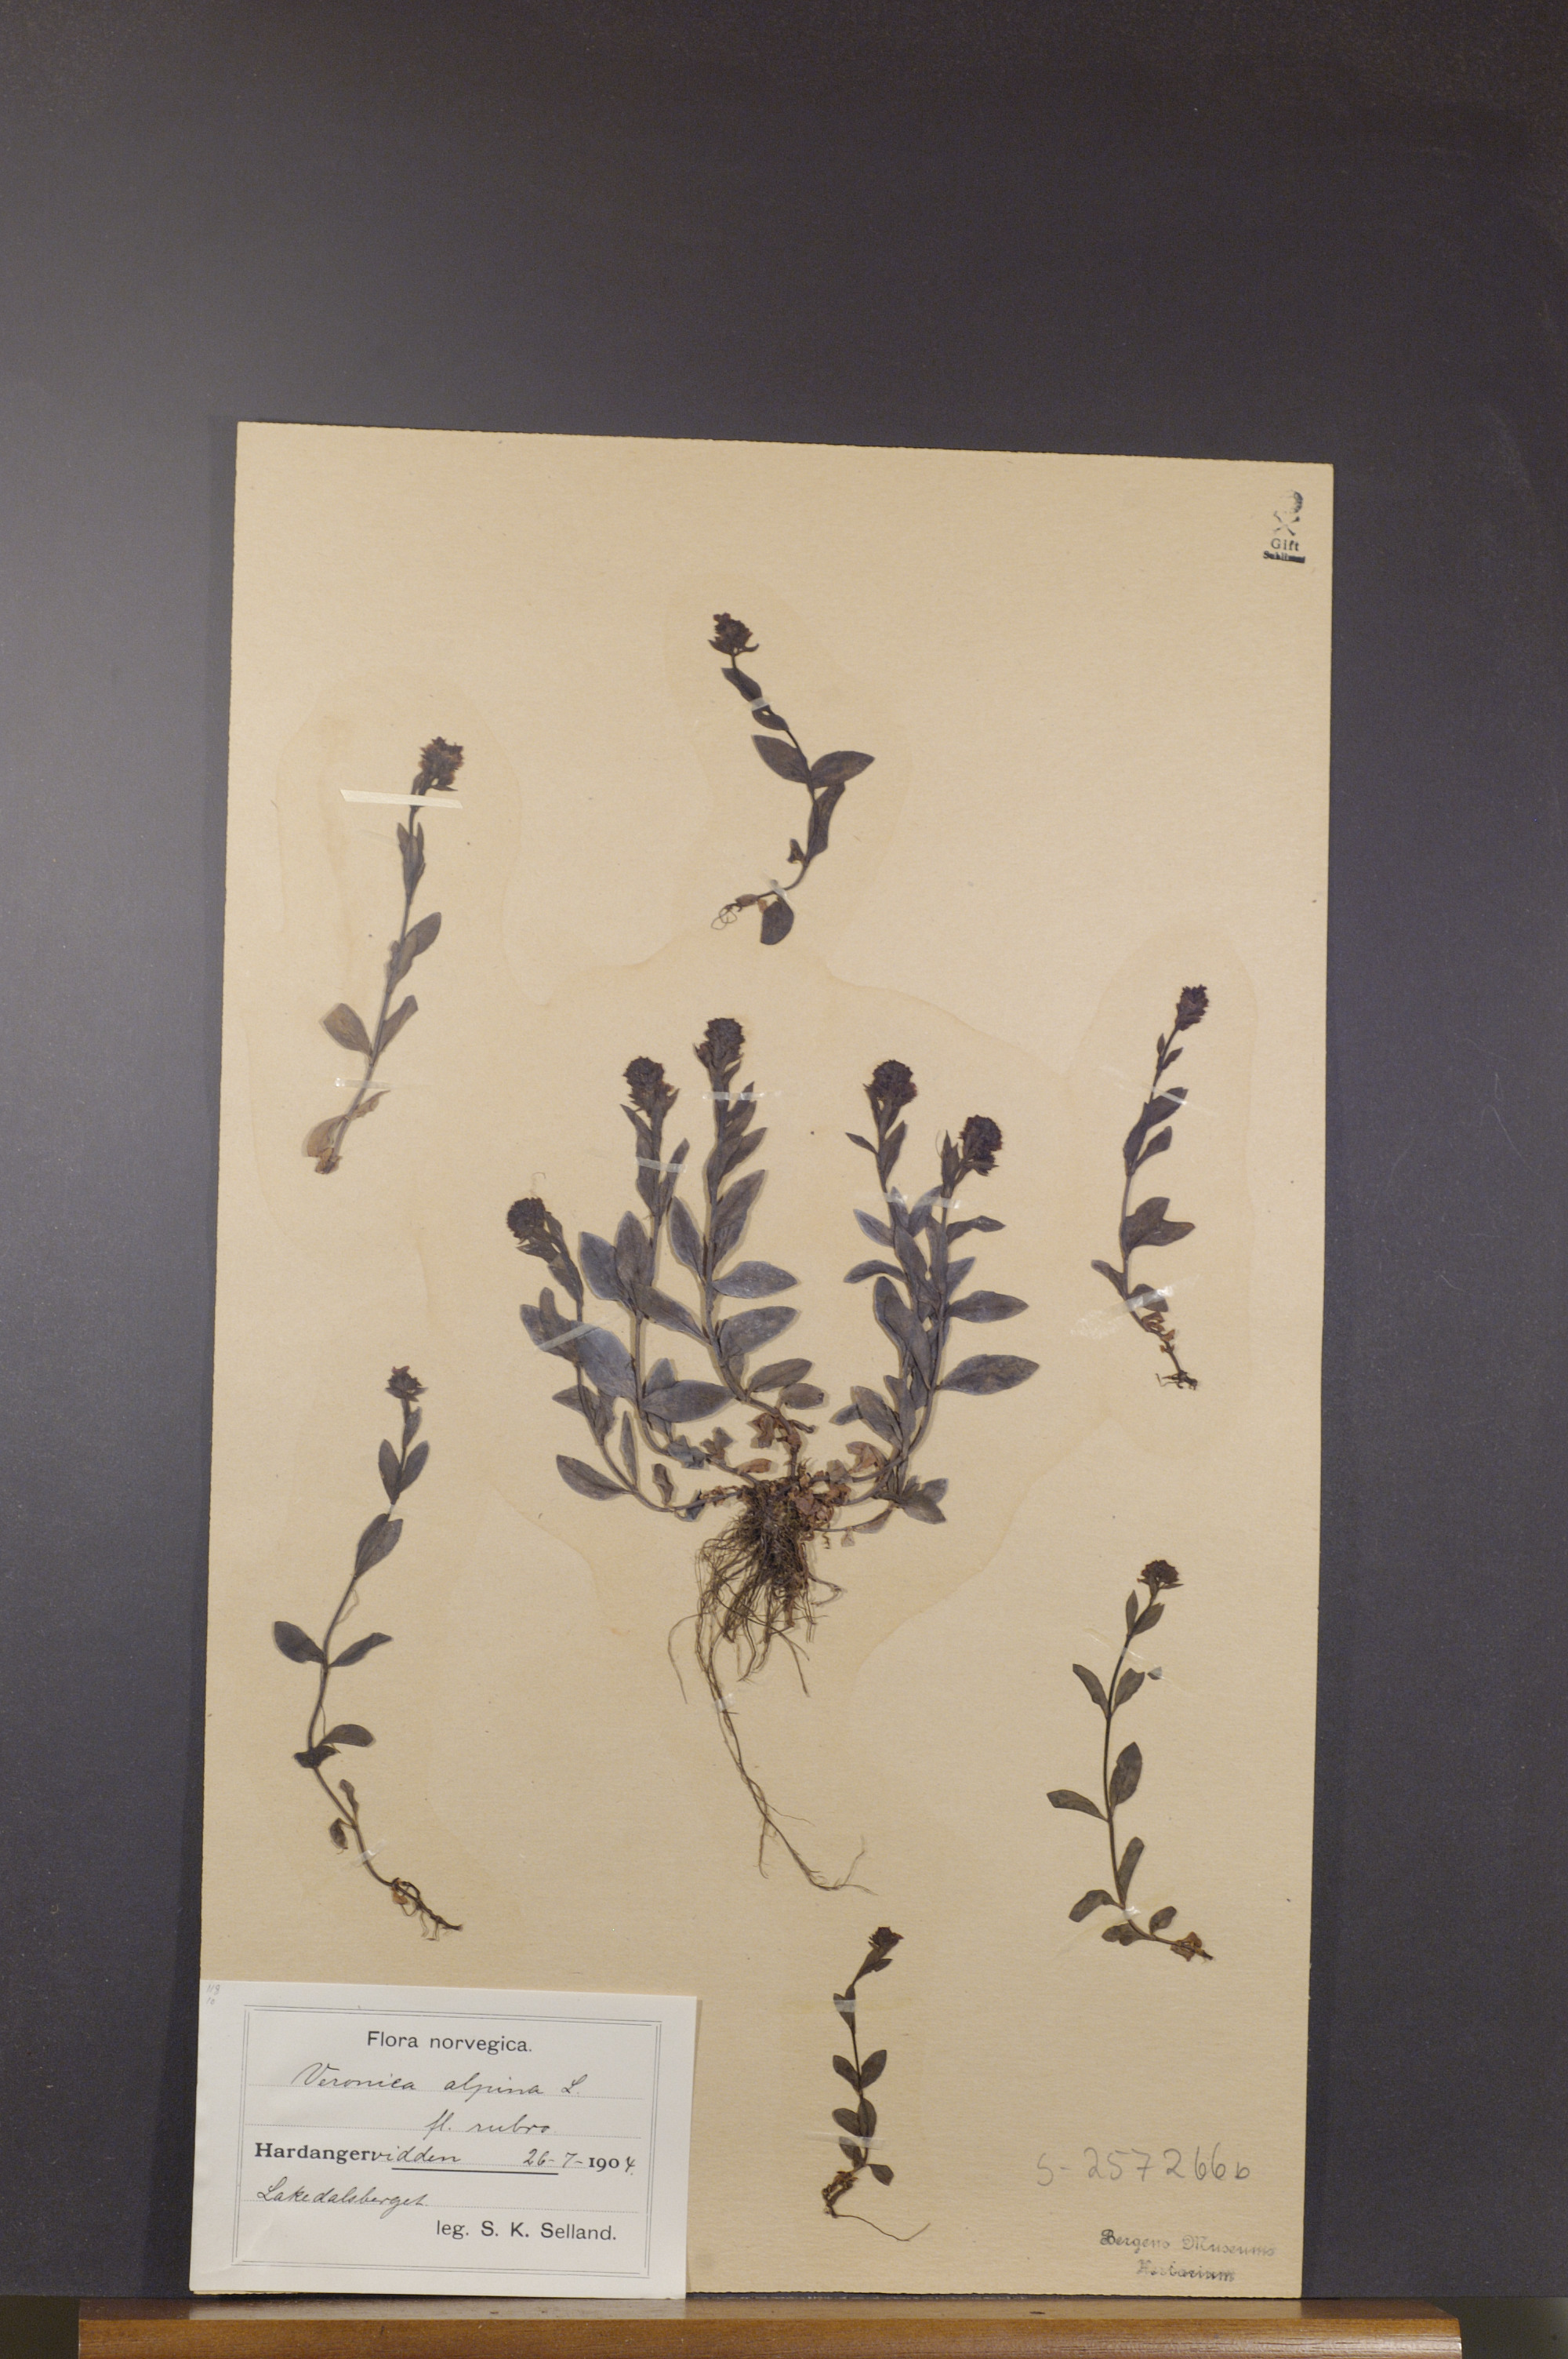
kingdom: Plantae
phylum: Tracheophyta
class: Magnoliopsida
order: Lamiales
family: Plantaginaceae
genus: Veronica
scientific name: Veronica alpina
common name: Alpine speedwell
